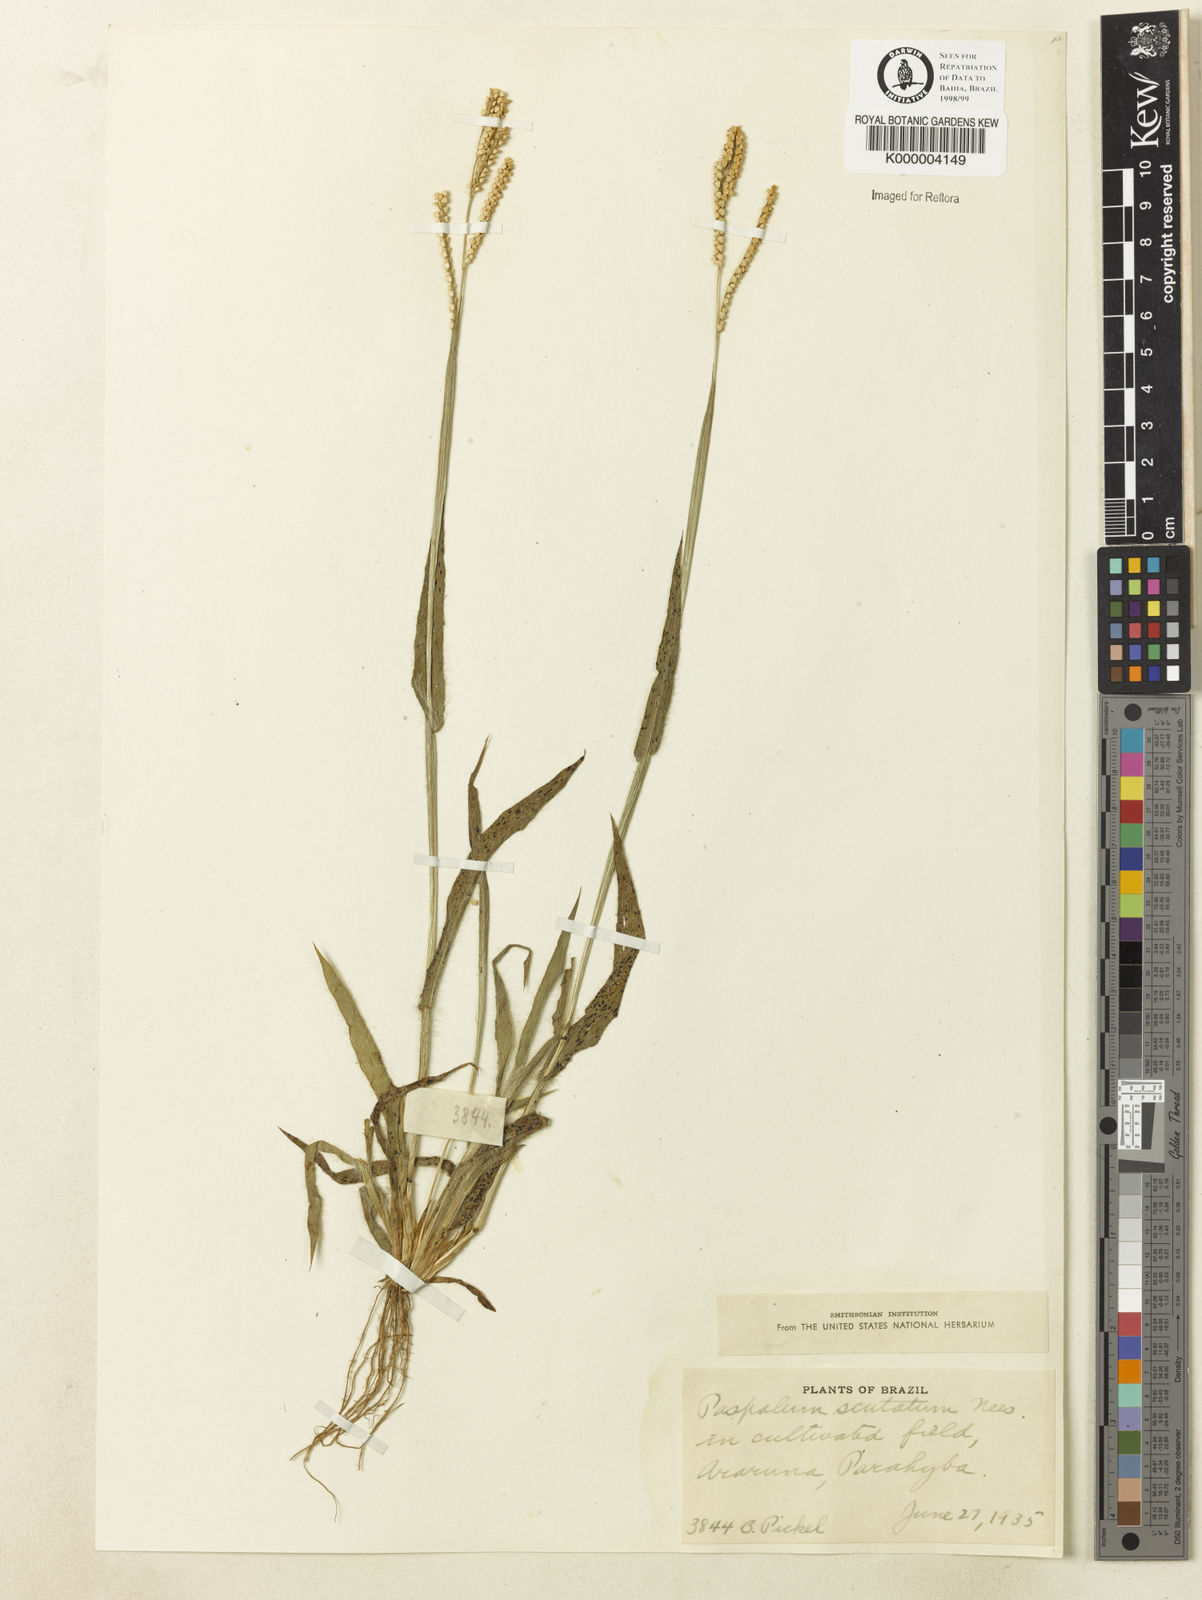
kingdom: Plantae
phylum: Tracheophyta
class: Liliopsida
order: Poales
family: Poaceae
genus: Paspalum
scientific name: Paspalum
